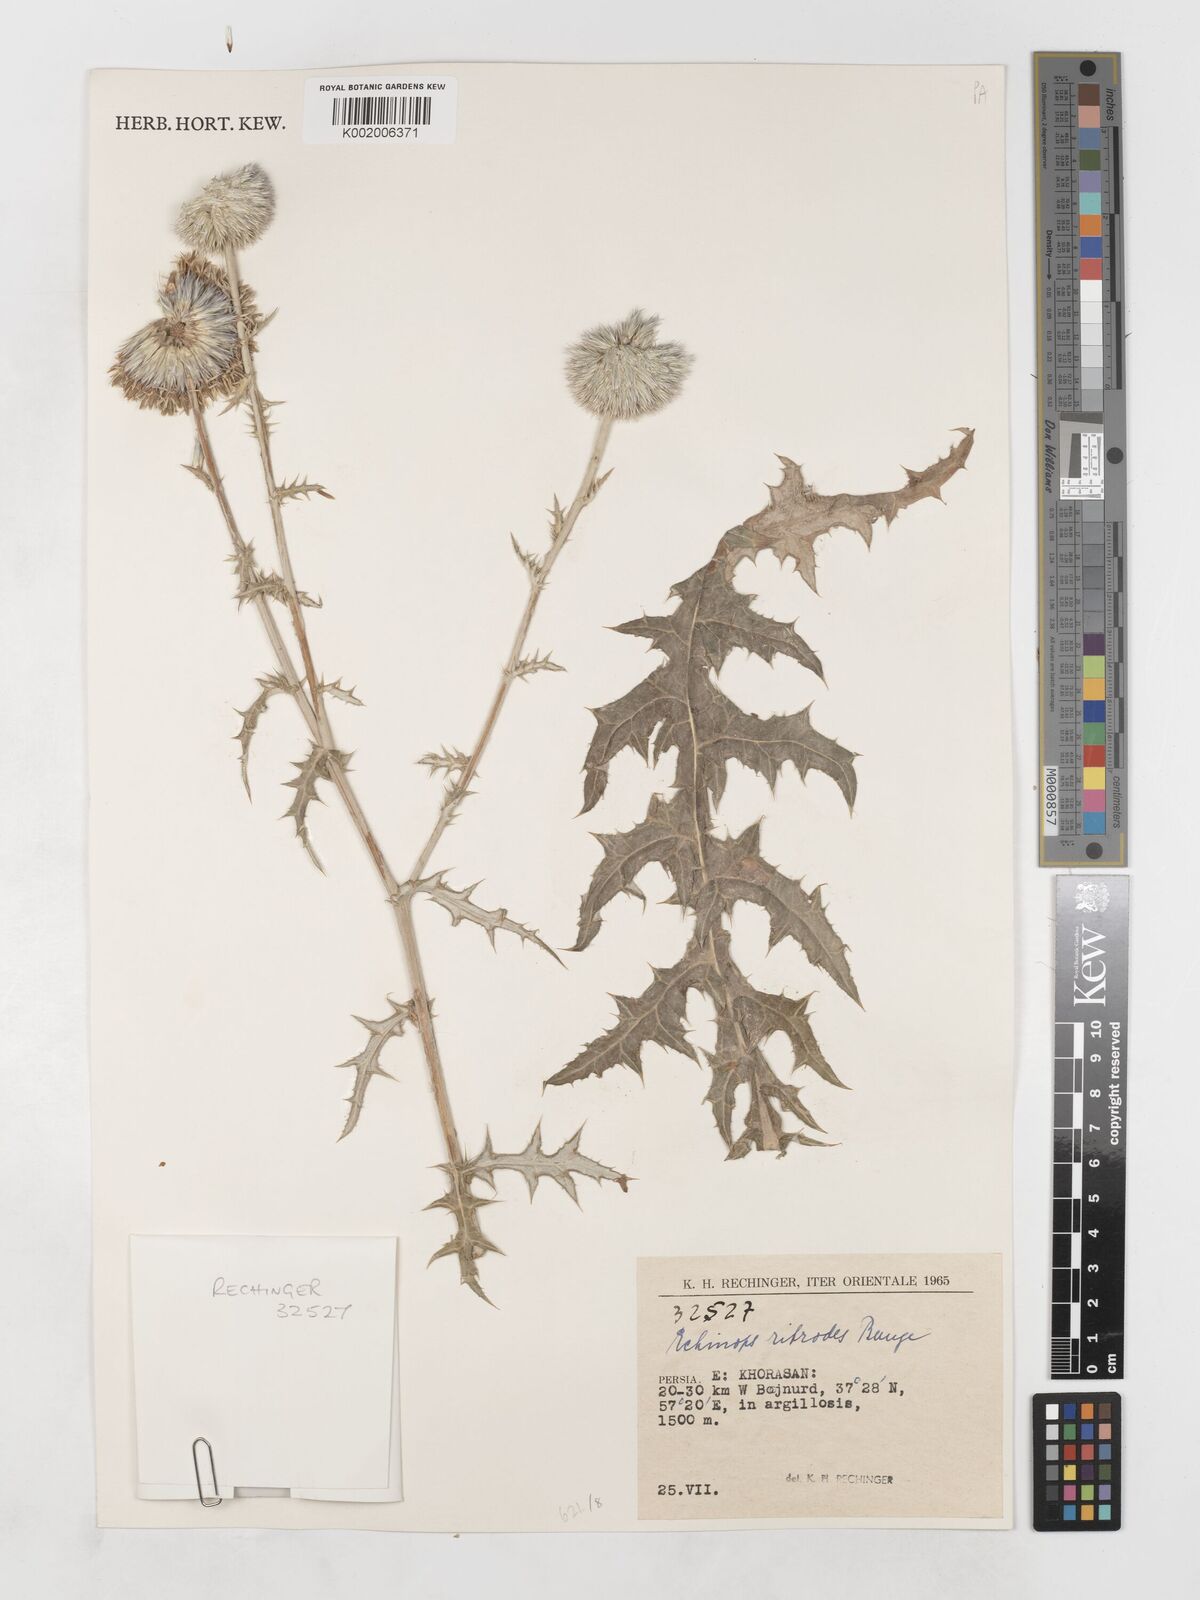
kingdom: Plantae
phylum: Tracheophyta
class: Magnoliopsida
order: Asterales
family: Asteraceae
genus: Echinops
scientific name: Echinops ritrodes
